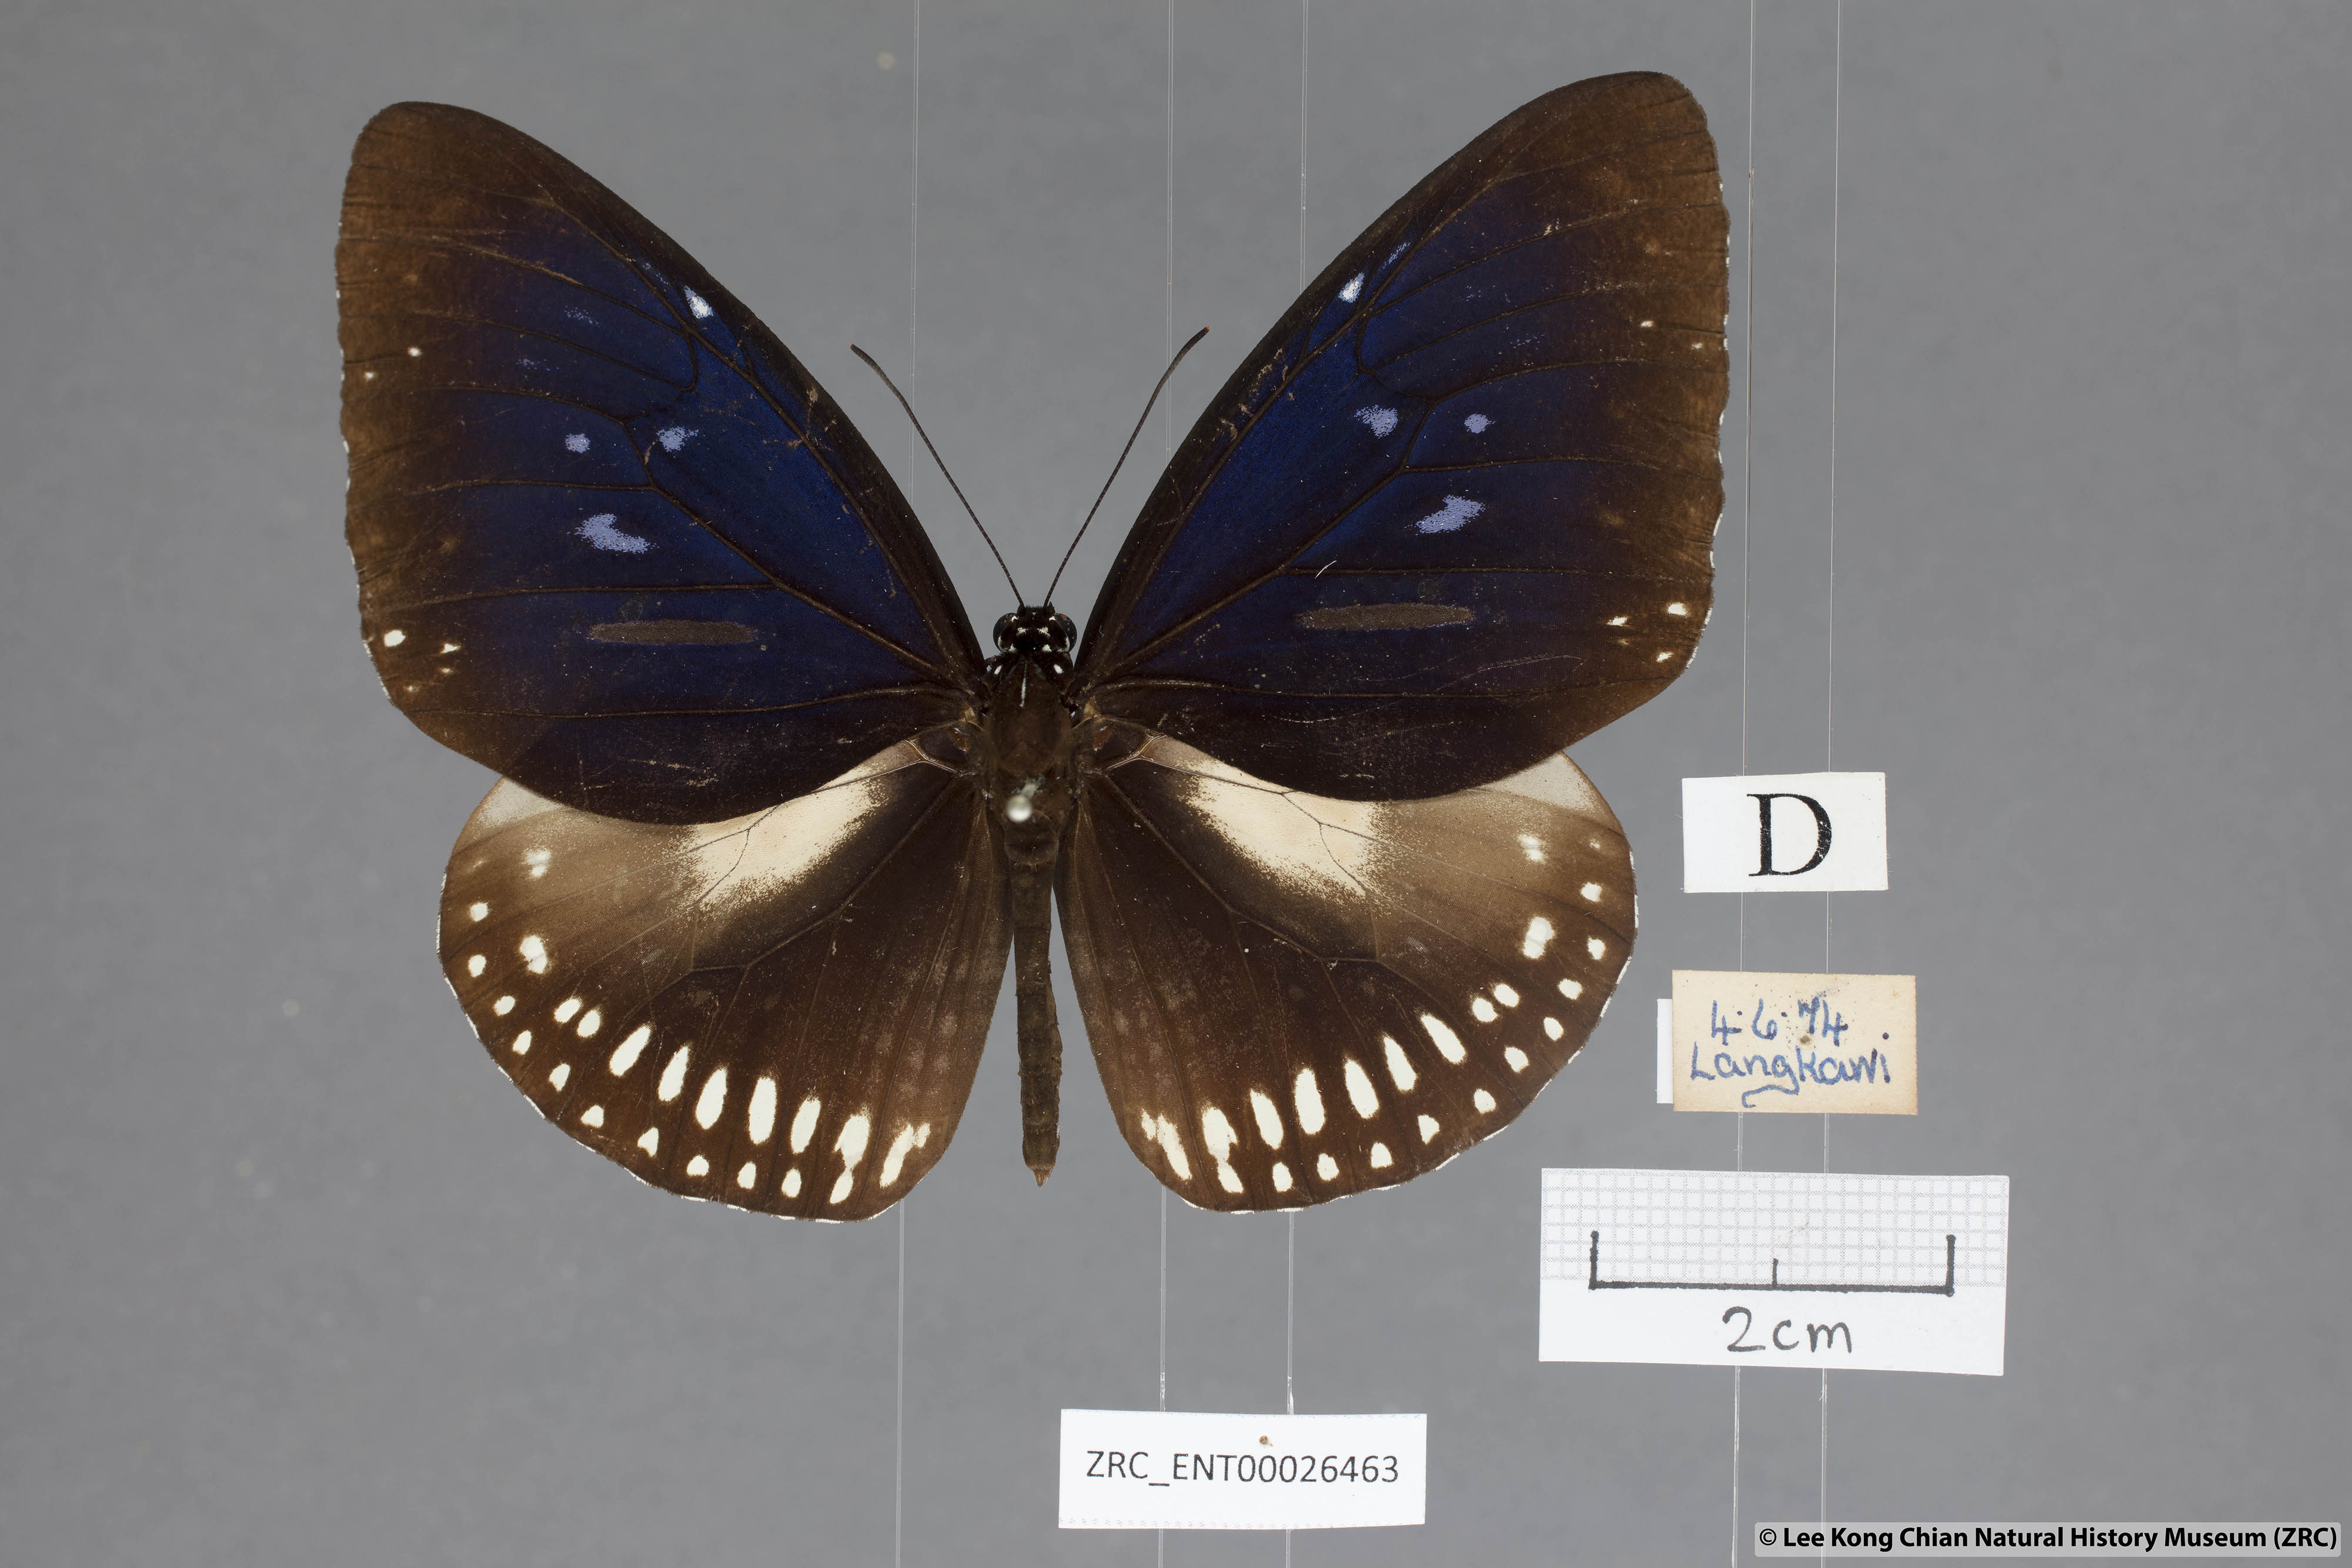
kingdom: Animalia
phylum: Arthropoda
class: Insecta
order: Lepidoptera
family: Nymphalidae
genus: Euploea
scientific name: Euploea midamus
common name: Blue-spotted crow butterfly
